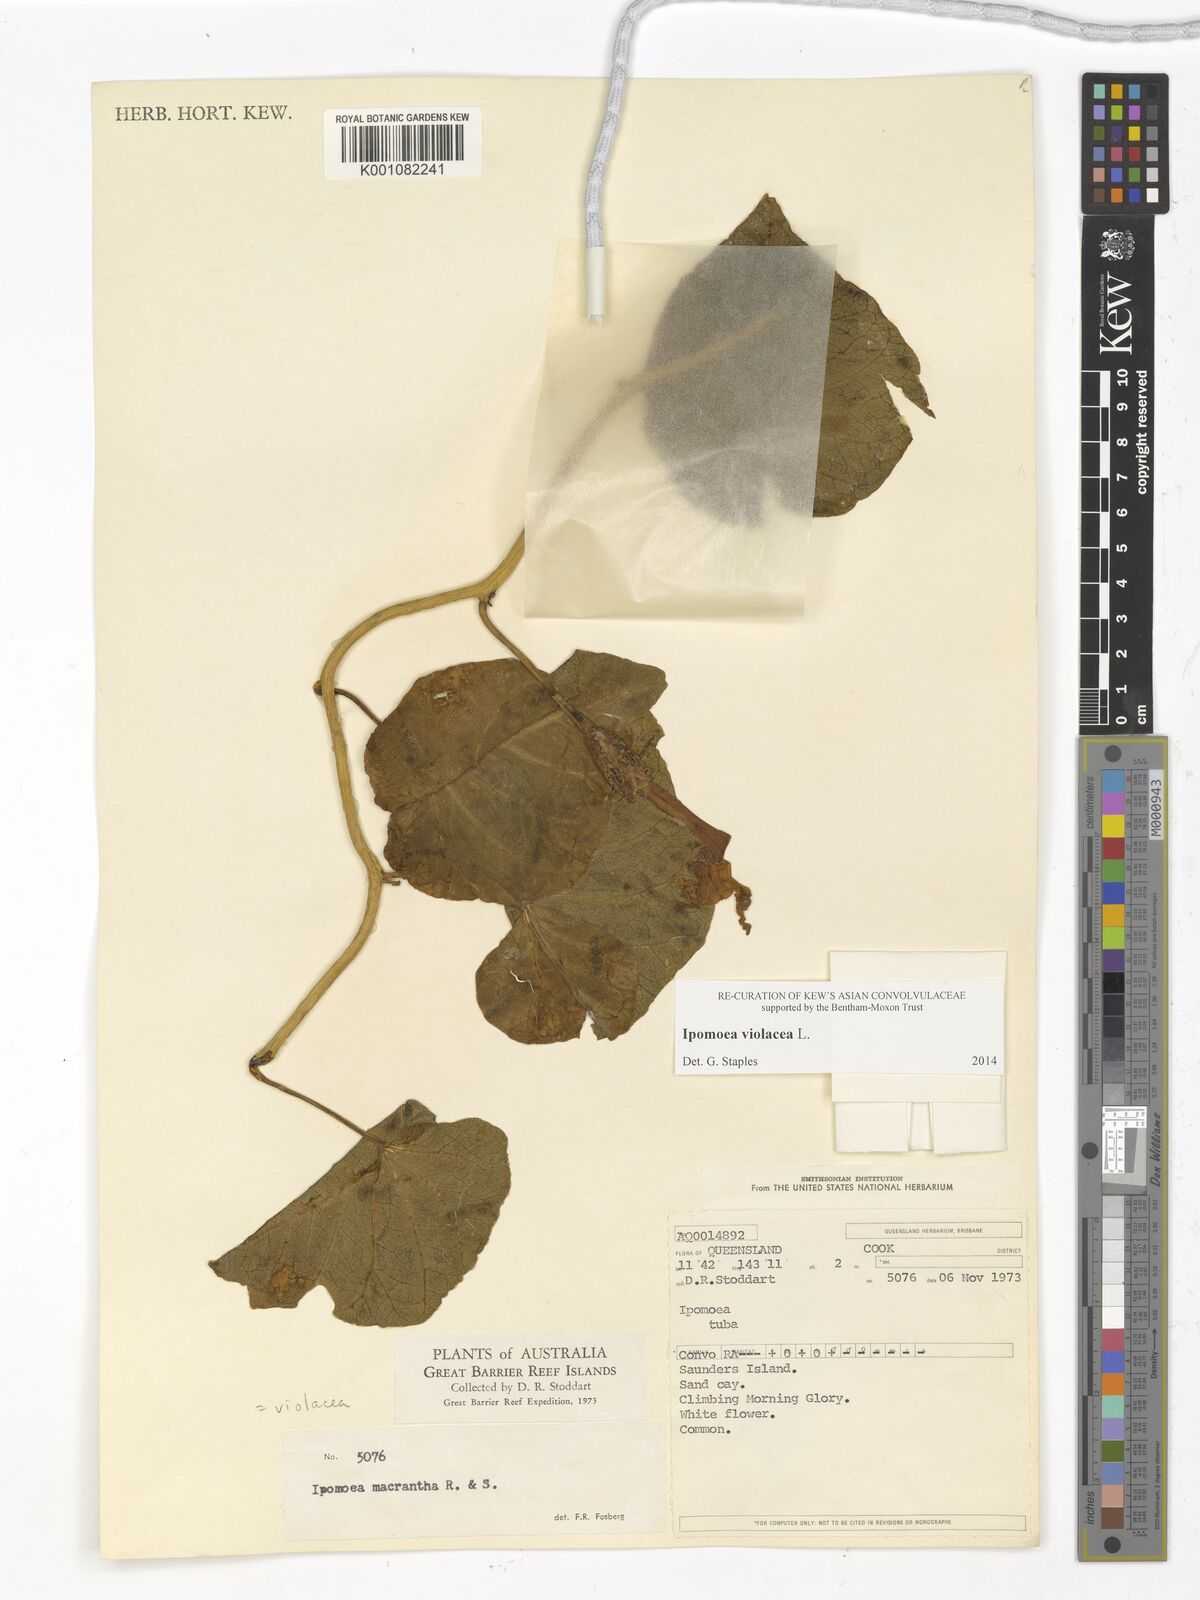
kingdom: Plantae
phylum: Tracheophyta
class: Magnoliopsida
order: Solanales
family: Convolvulaceae
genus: Ipomoea
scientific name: Ipomoea violacea
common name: Beach moonflower
